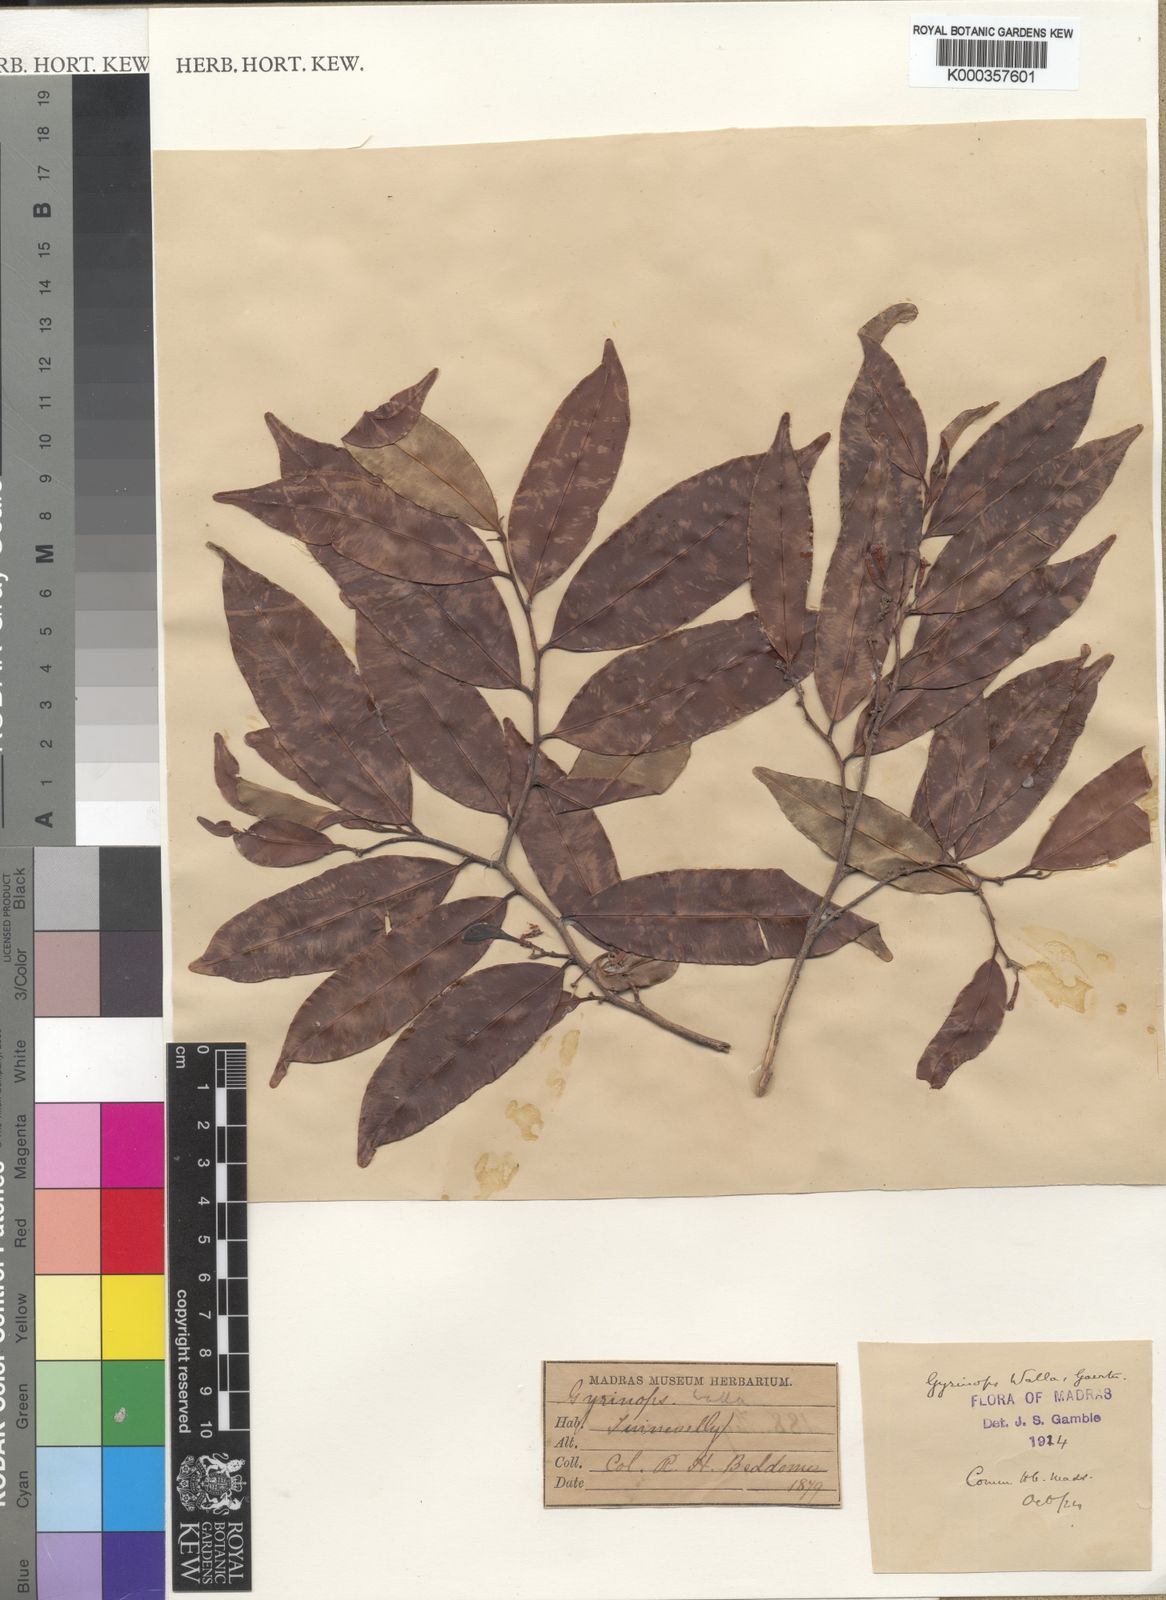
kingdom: Plantae
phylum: Tracheophyta
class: Magnoliopsida
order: Malvales
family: Thymelaeaceae
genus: Gyrinops
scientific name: Gyrinops walla
